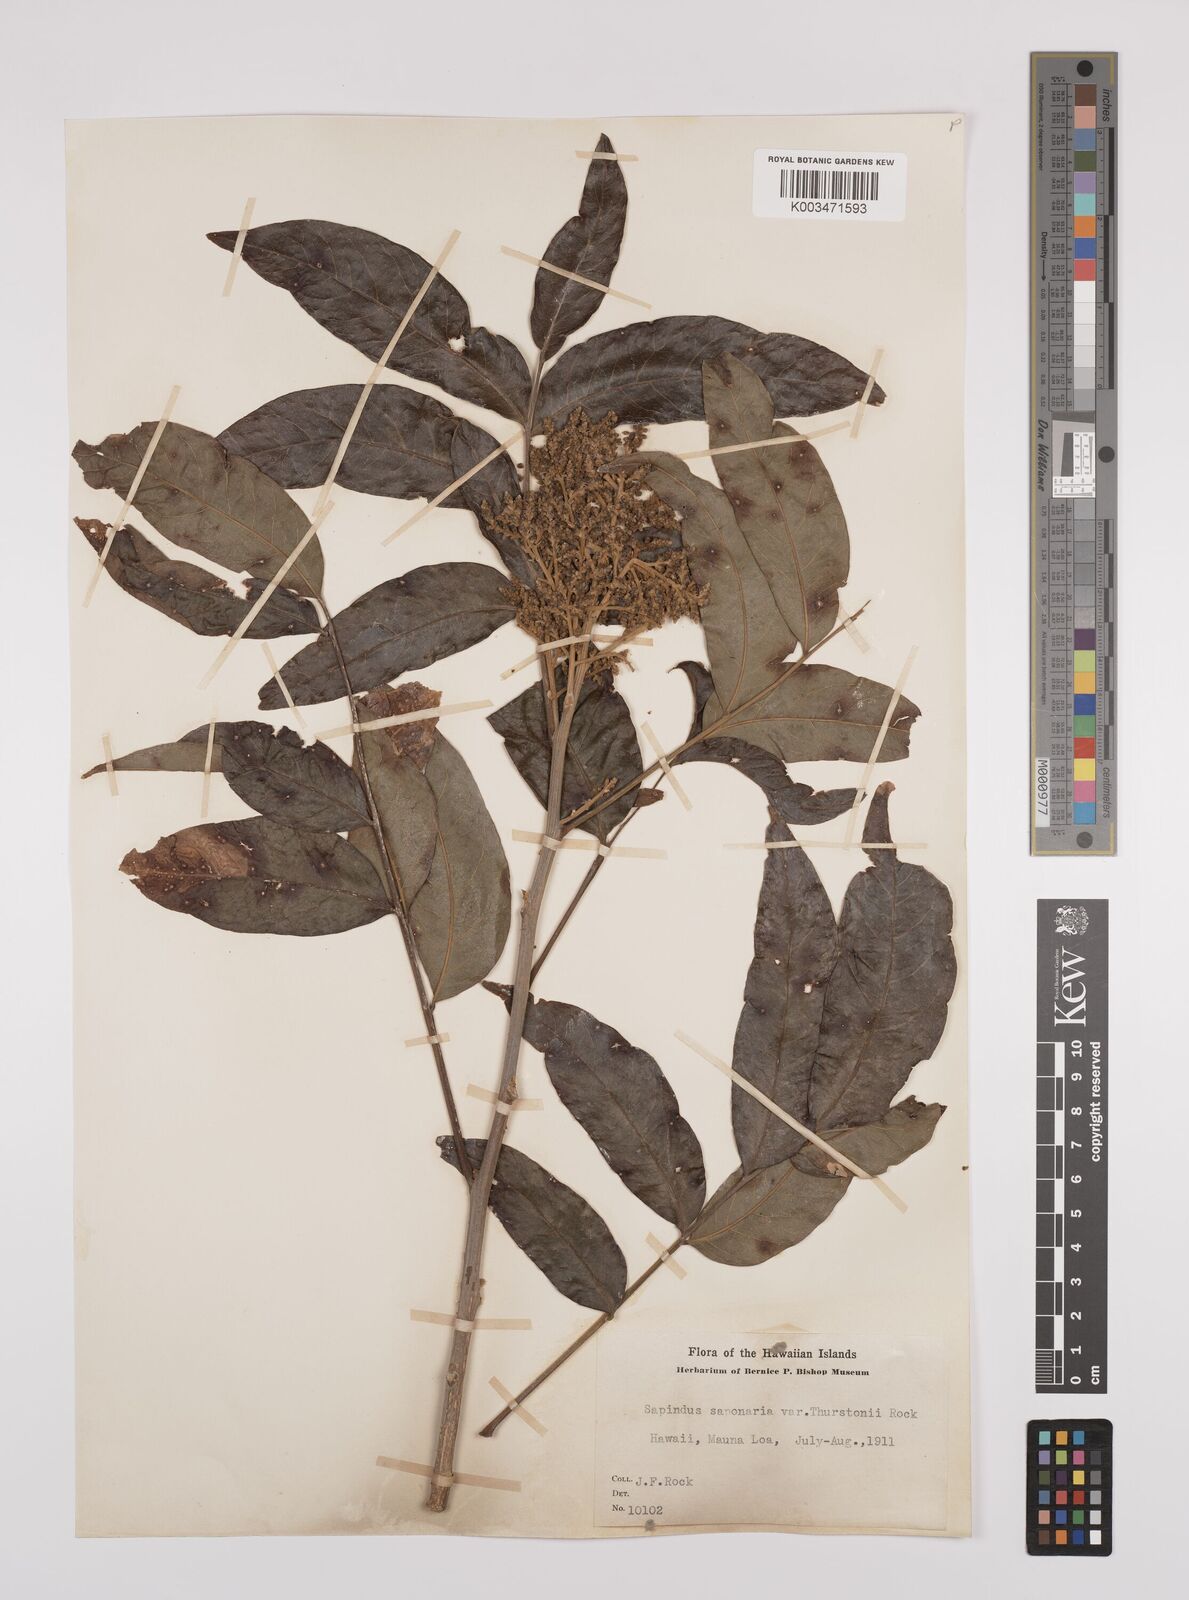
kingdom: Plantae
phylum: Tracheophyta
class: Magnoliopsida
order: Sapindales
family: Sapindaceae
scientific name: Sapindaceae
